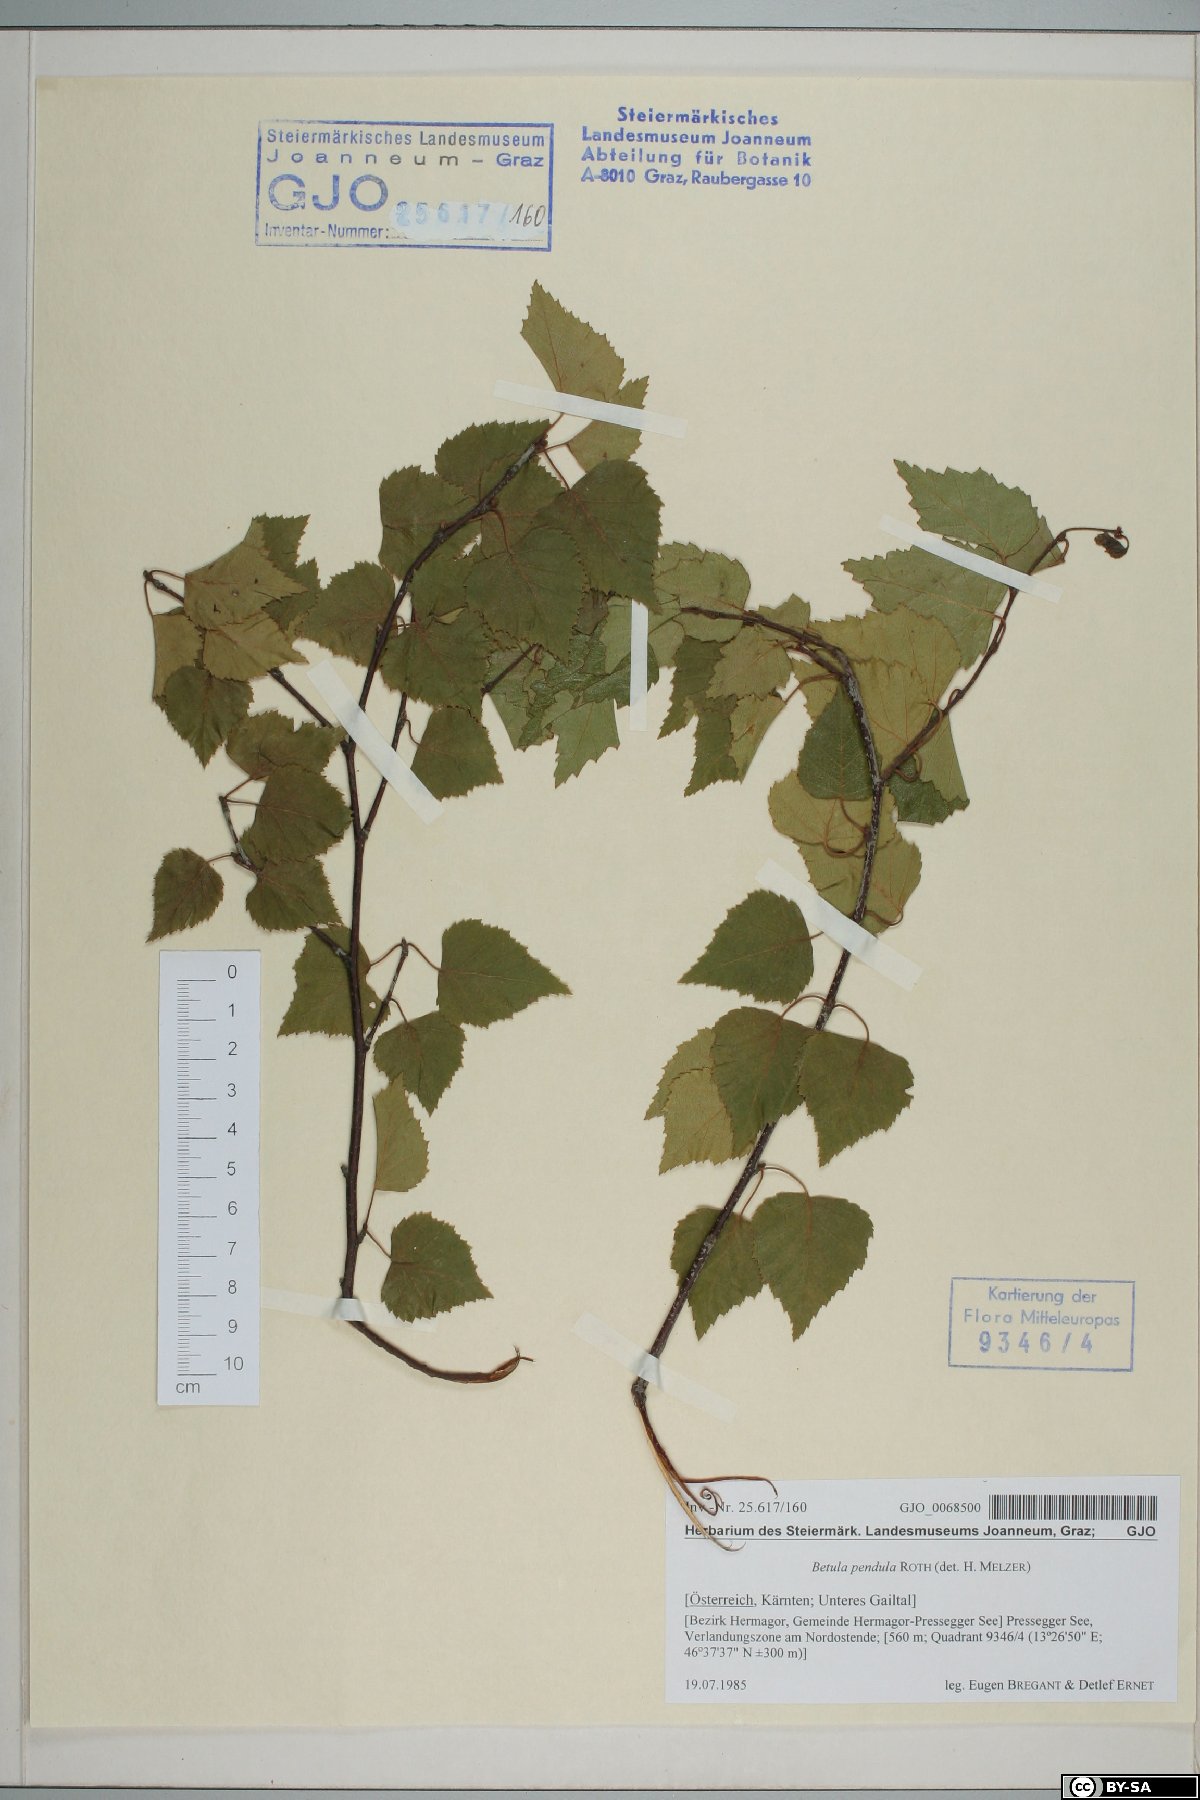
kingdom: Plantae
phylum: Tracheophyta
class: Magnoliopsida
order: Fagales
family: Betulaceae
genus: Betula
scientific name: Betula pendula
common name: Silver birch
